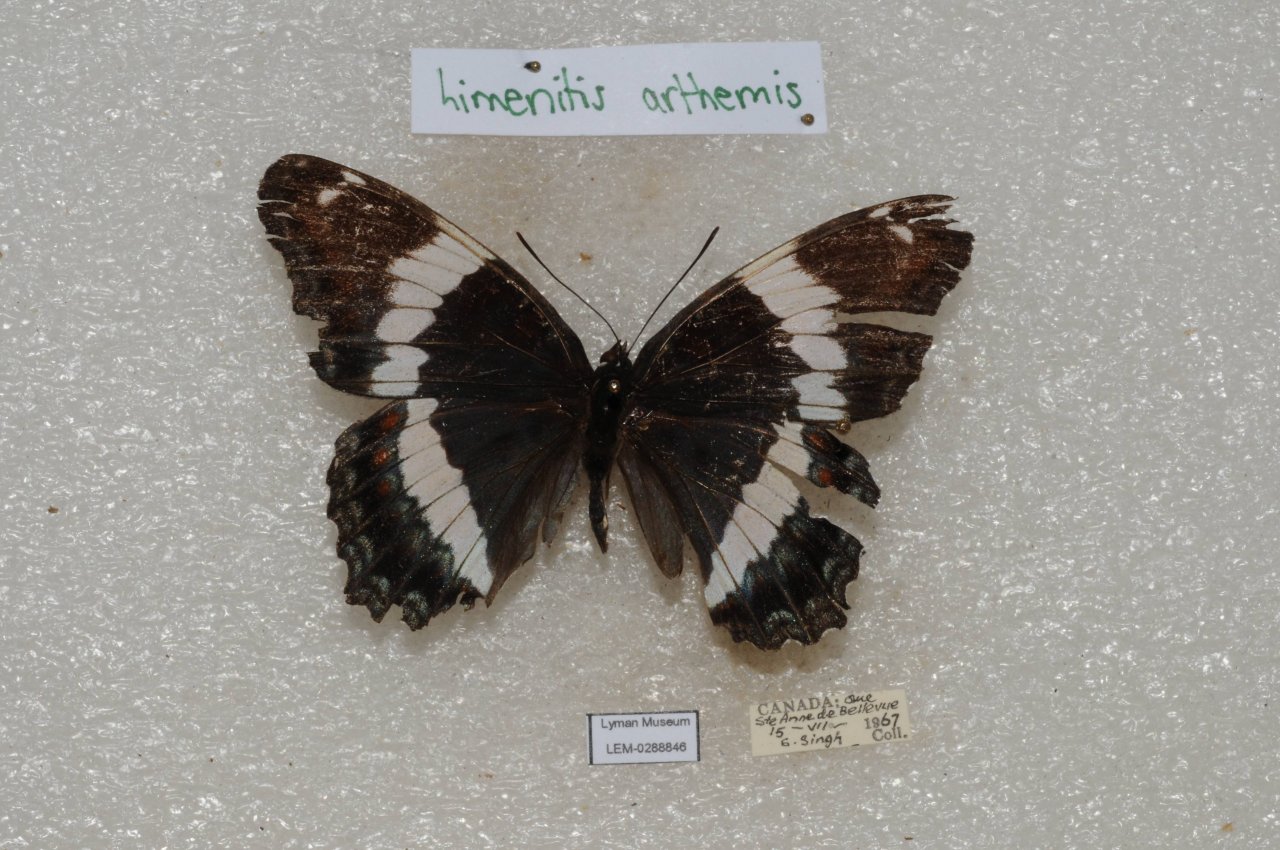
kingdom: Animalia
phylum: Arthropoda
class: Insecta
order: Lepidoptera
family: Nymphalidae
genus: Limenitis
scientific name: Limenitis arthemis
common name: Red-spotted Admiral
